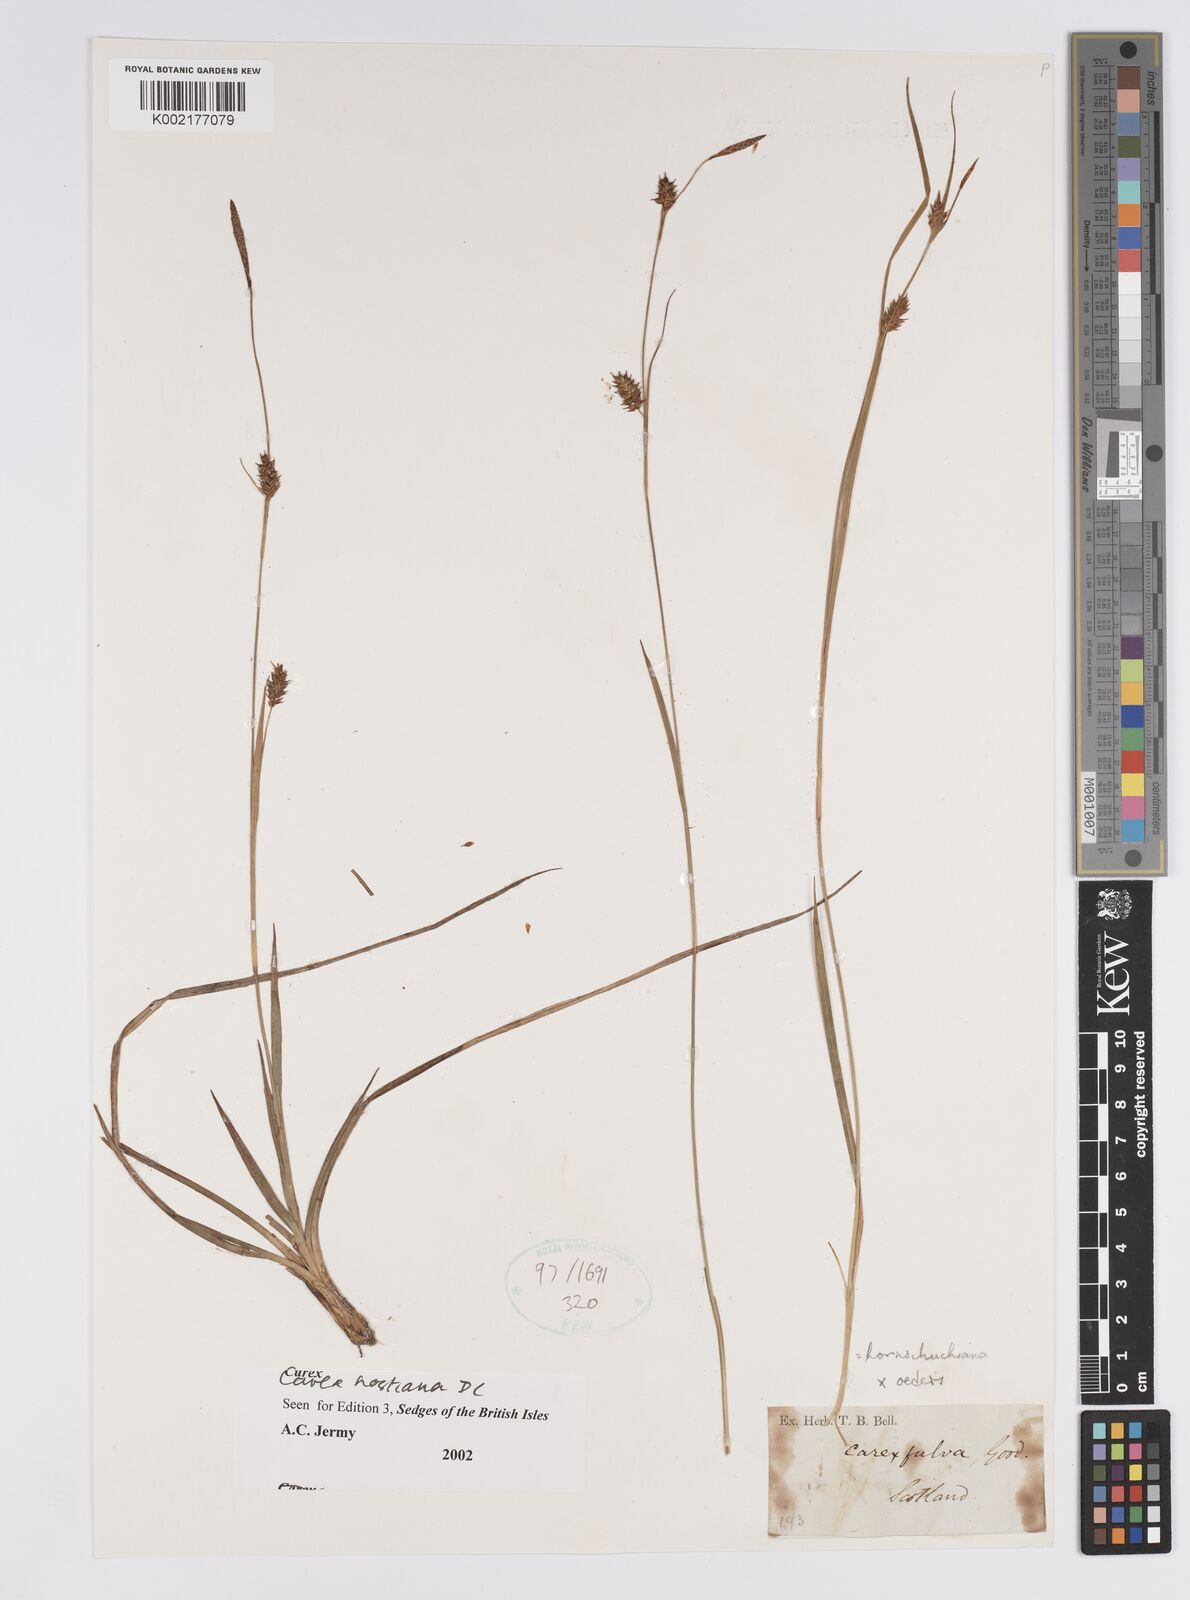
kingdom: Plantae
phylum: Tracheophyta
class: Liliopsida
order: Poales
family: Cyperaceae
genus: Carex
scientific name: Carex hostiana
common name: Tawny sedge
